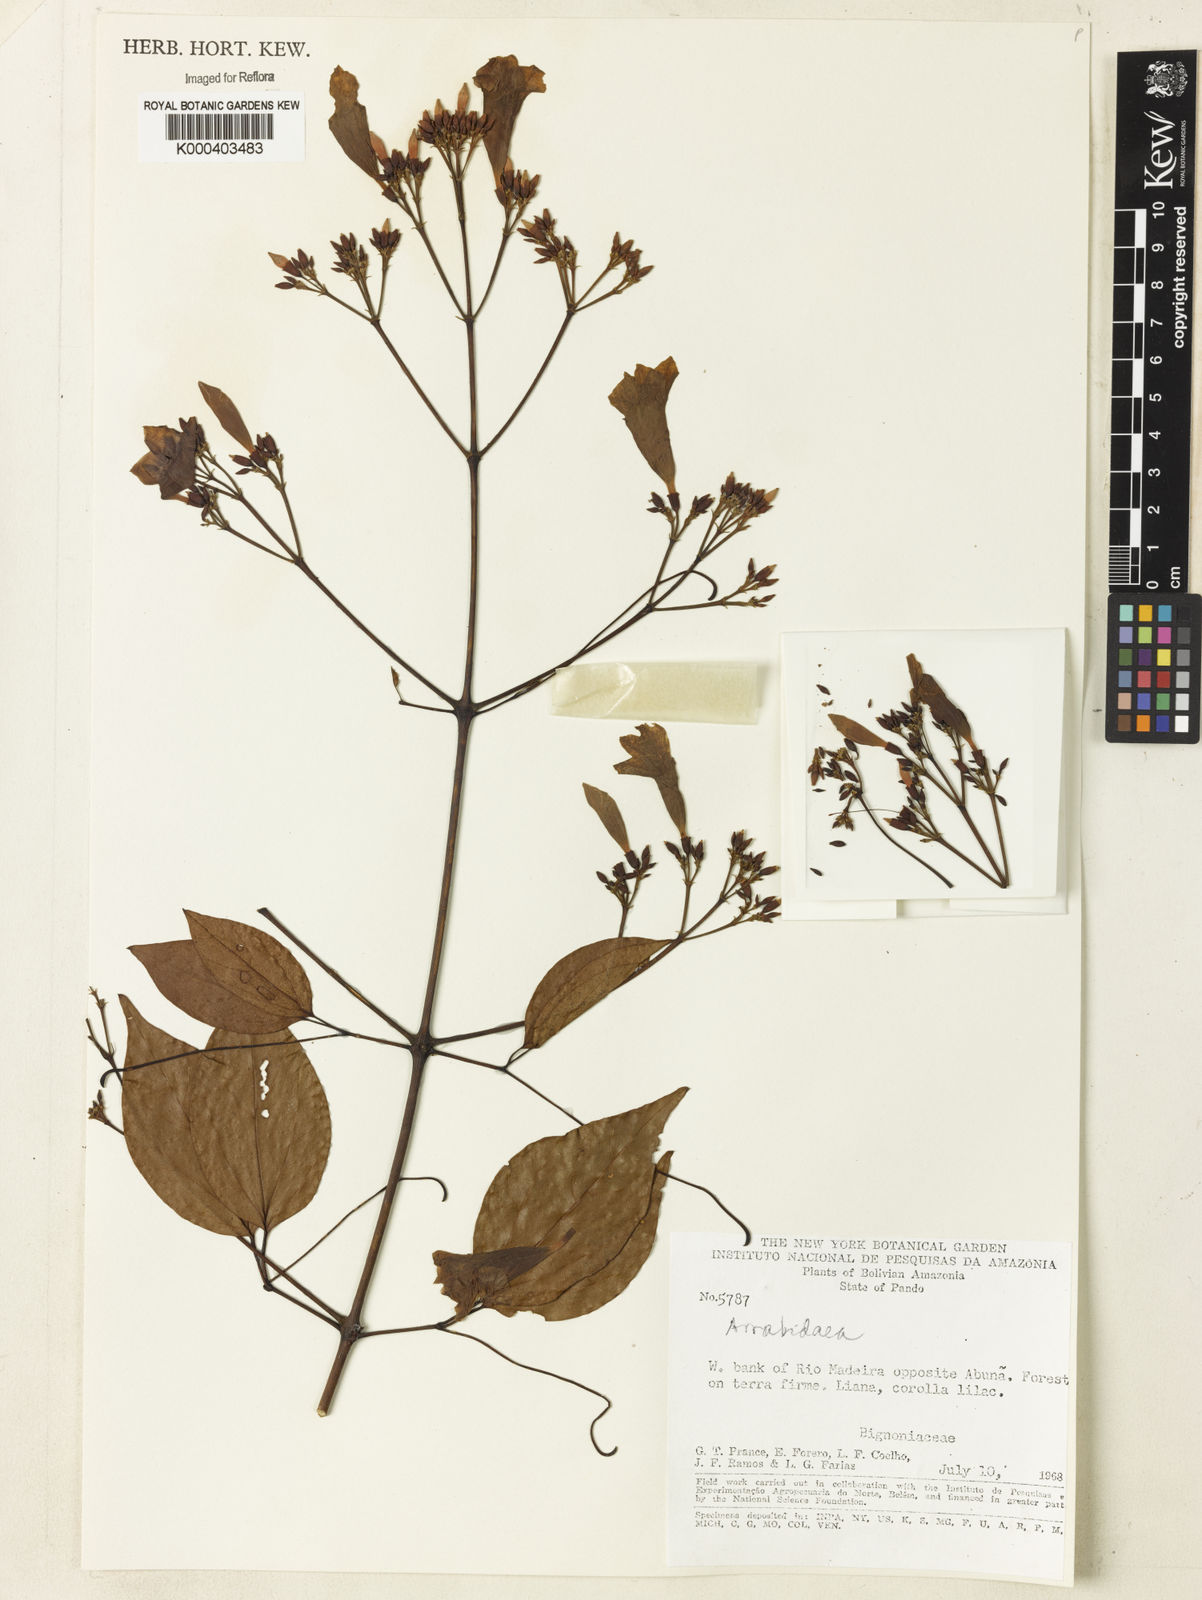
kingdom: Plantae
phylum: Tracheophyta
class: Magnoliopsida
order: Rosales
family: Rhamnaceae
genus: Arrabidaea
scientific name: Arrabidaea
